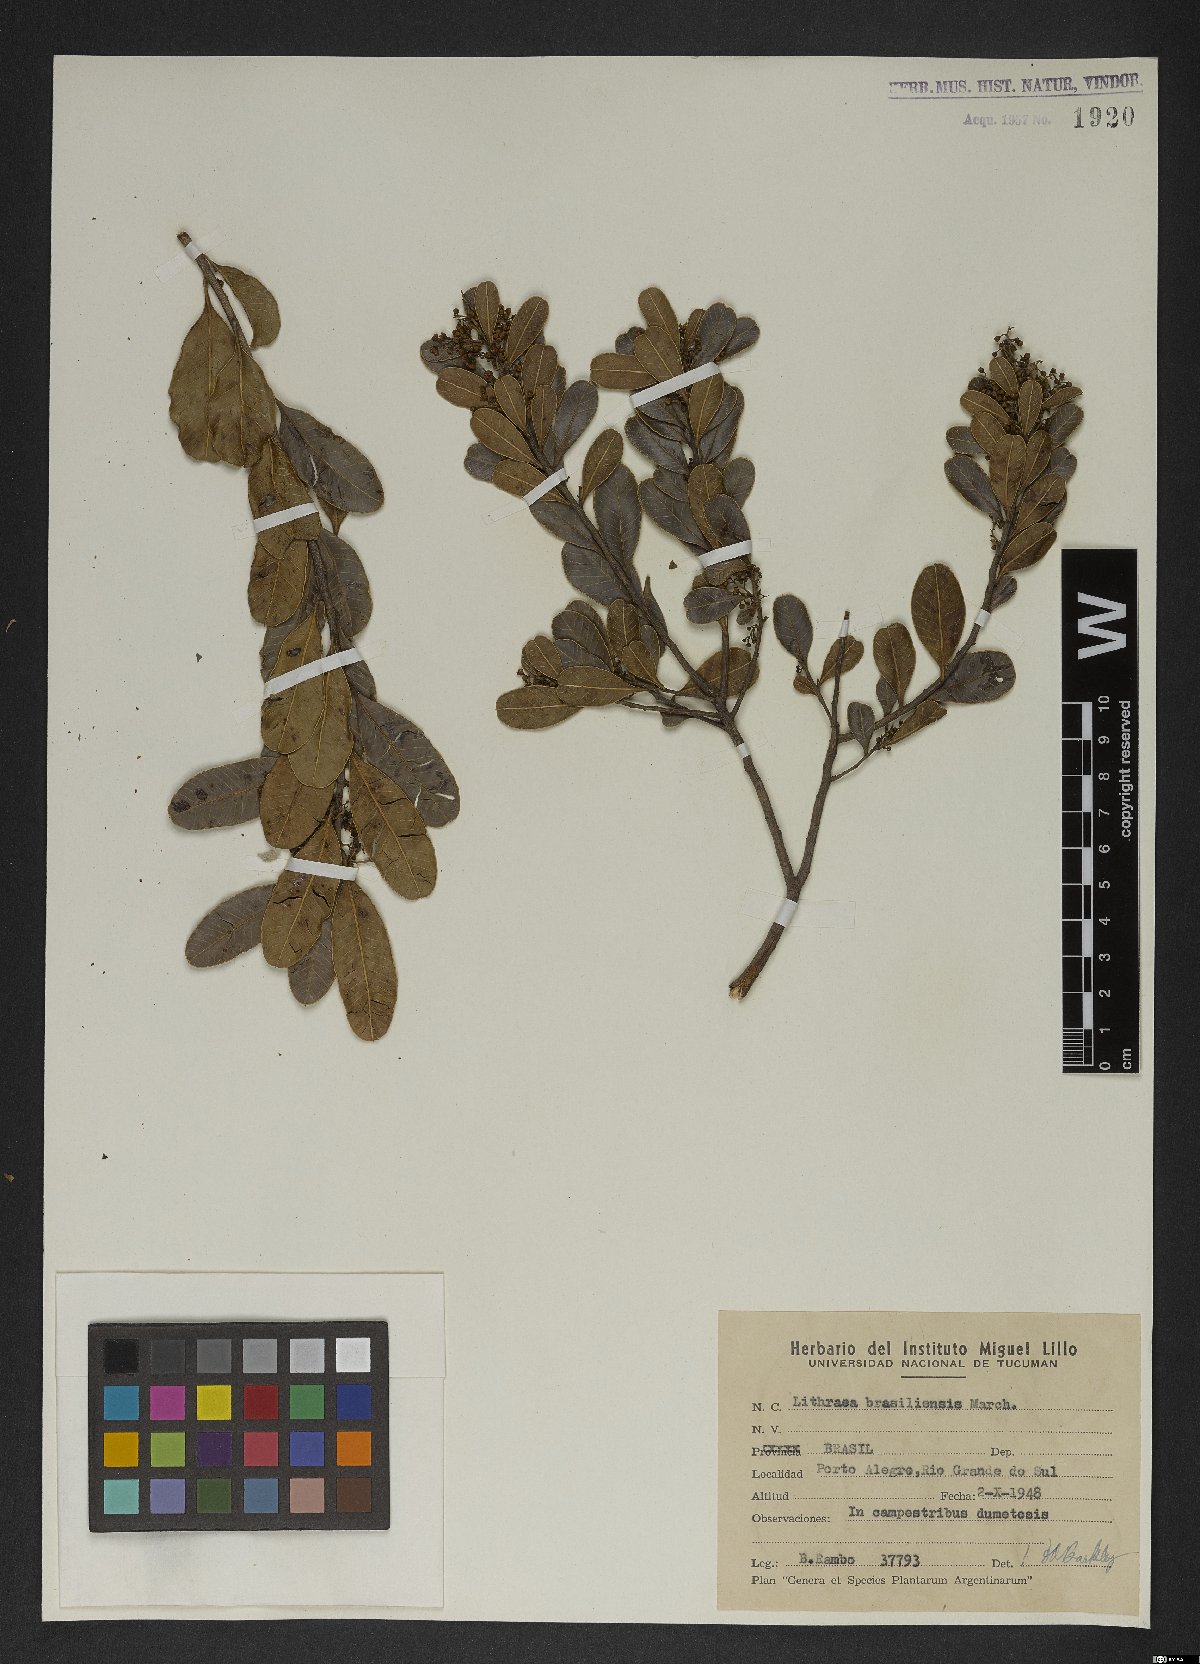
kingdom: Plantae
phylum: Tracheophyta
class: Magnoliopsida
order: Sapindales
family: Anacardiaceae
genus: Lithraea
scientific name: Lithraea brasiliensis
